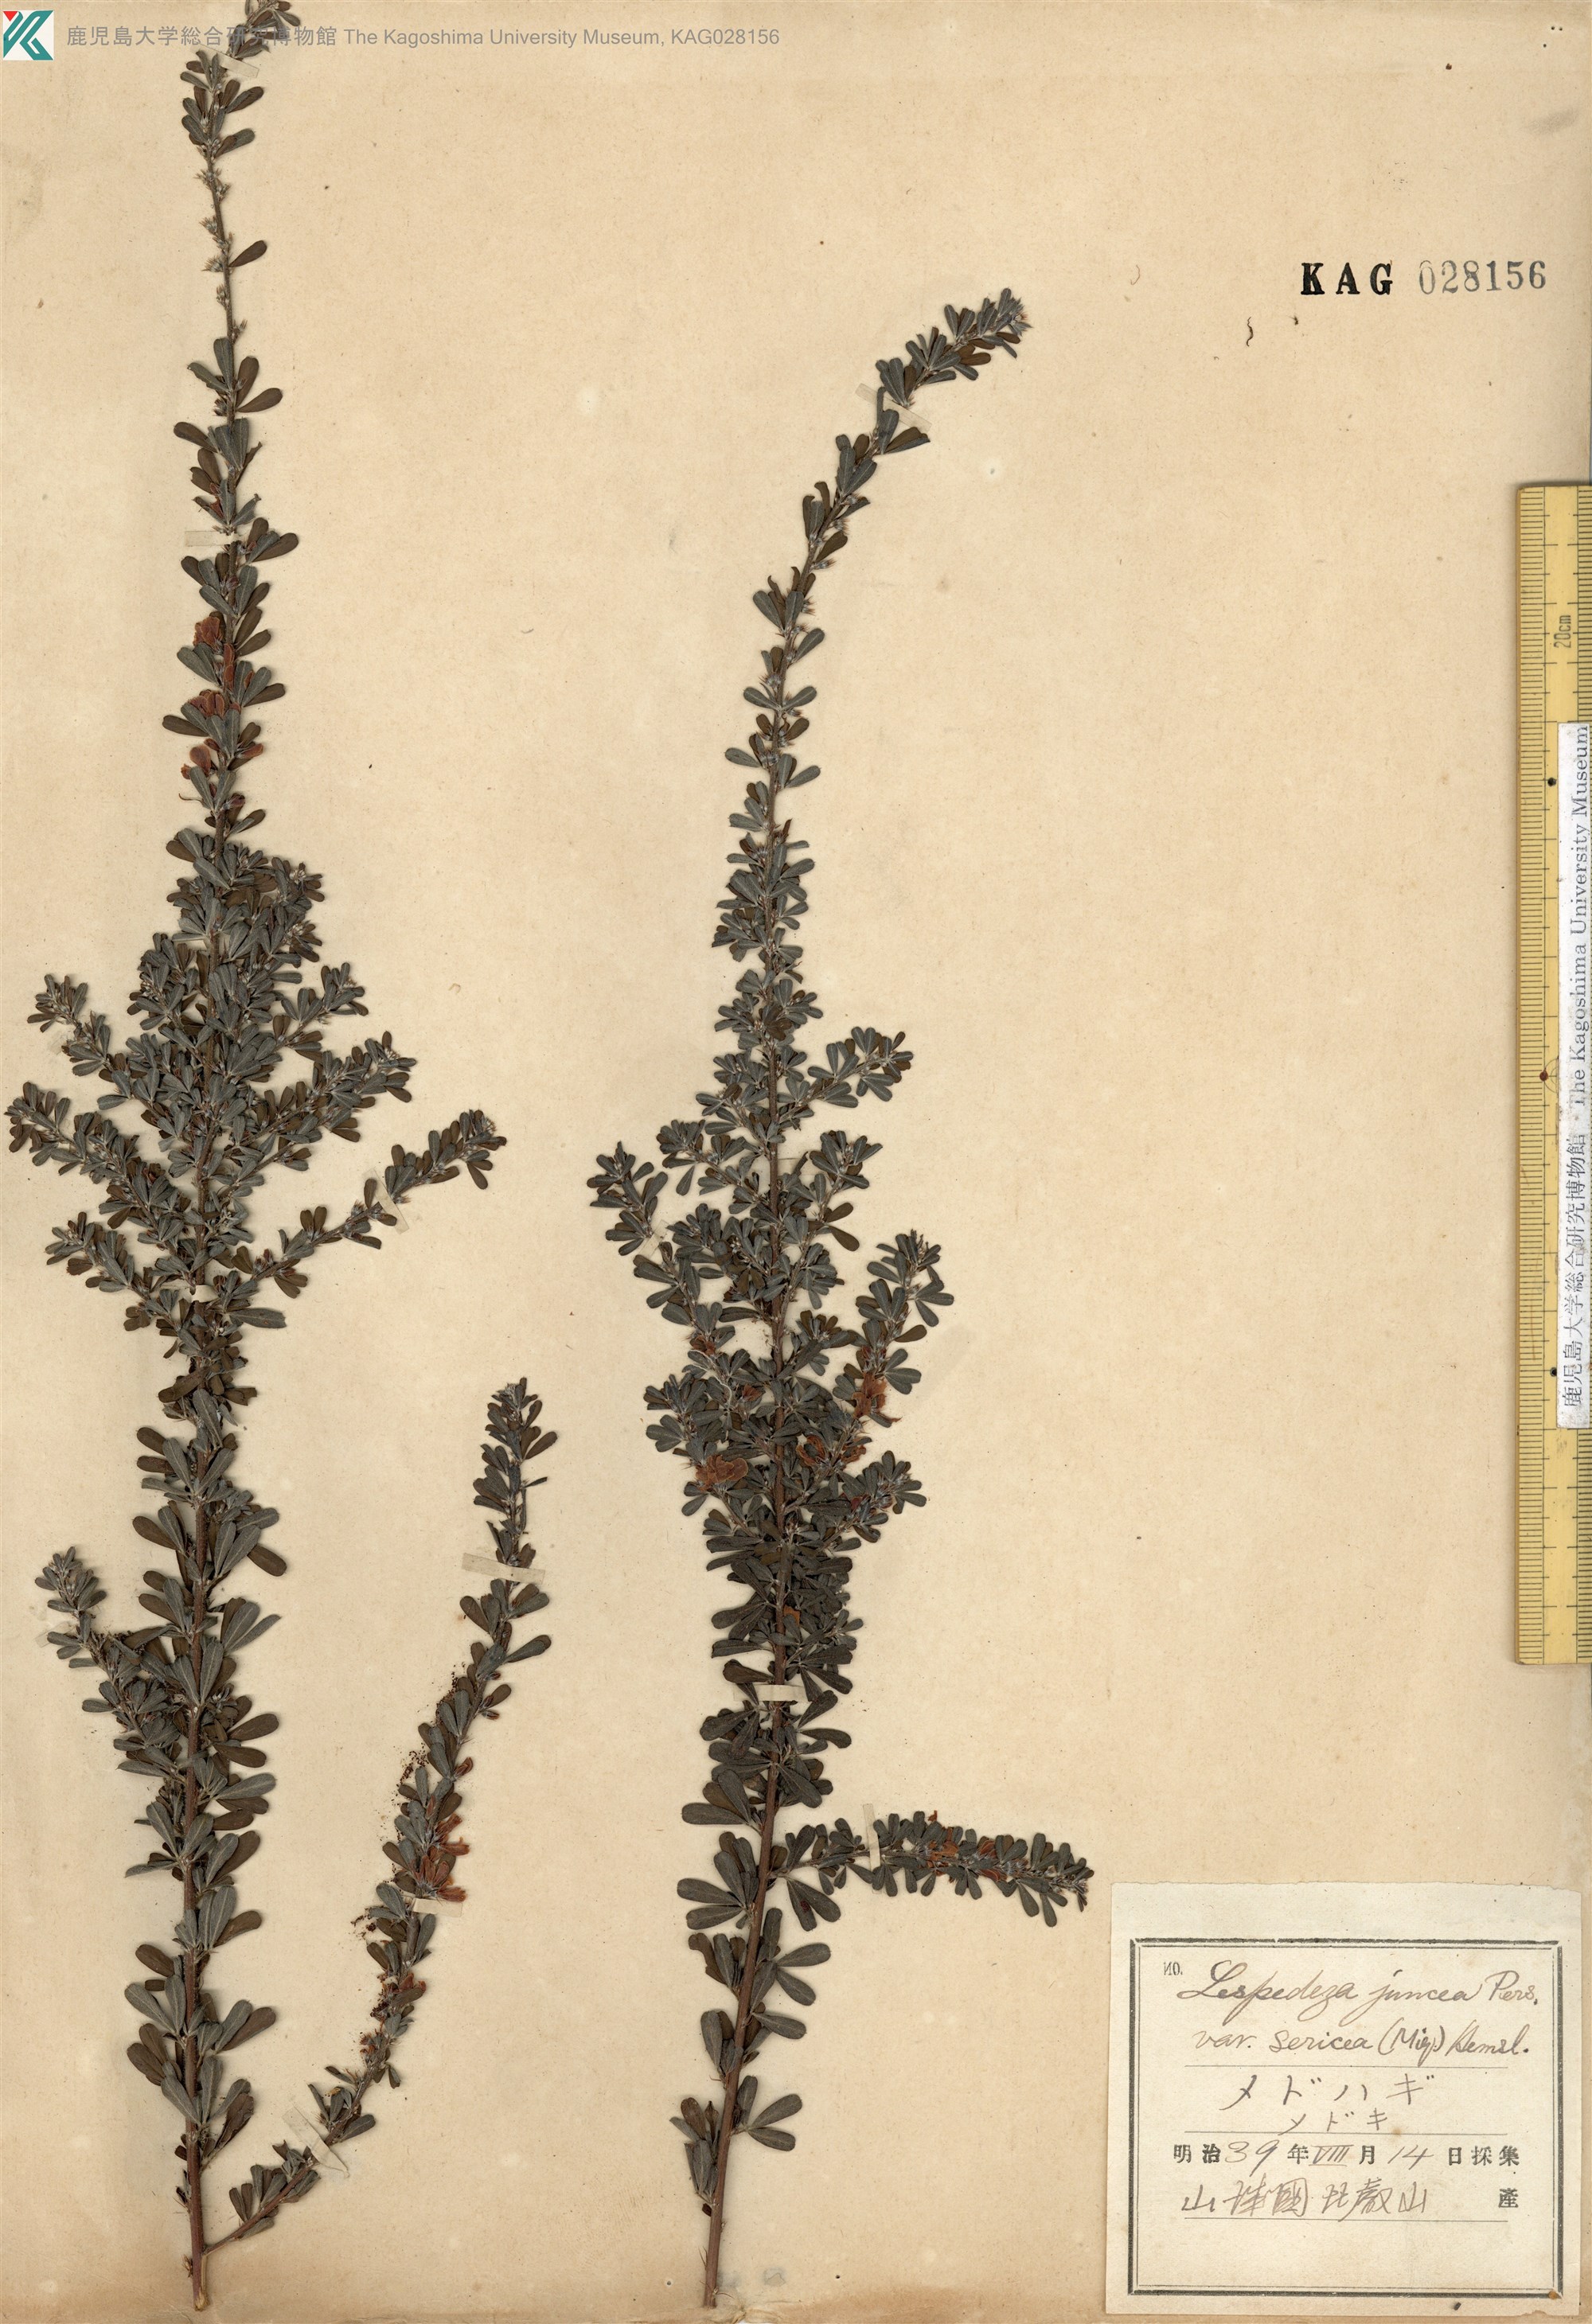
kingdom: Plantae
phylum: Tracheophyta
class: Magnoliopsida
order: Fabales
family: Fabaceae
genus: Lespedeza
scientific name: Lespedeza cuneata
